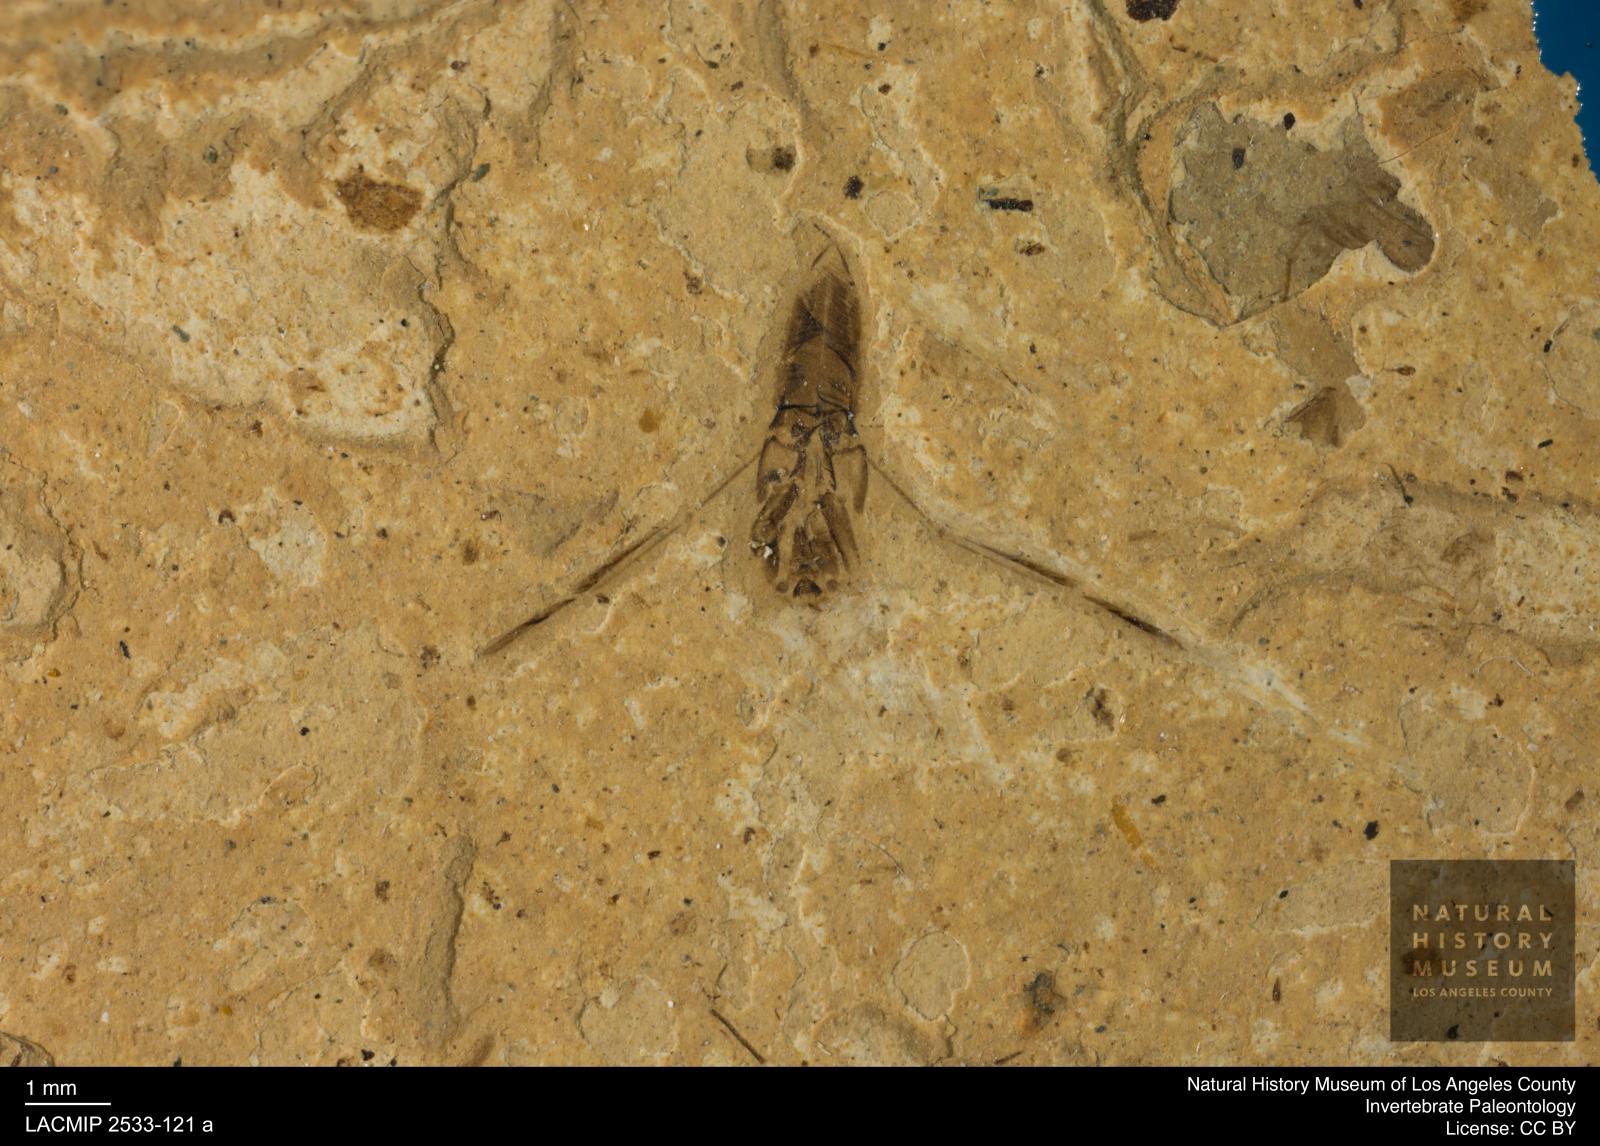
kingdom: Animalia
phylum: Arthropoda
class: Insecta
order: Hemiptera
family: Notonectidae
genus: Anisops
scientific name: Anisops Notonecta heydeni
